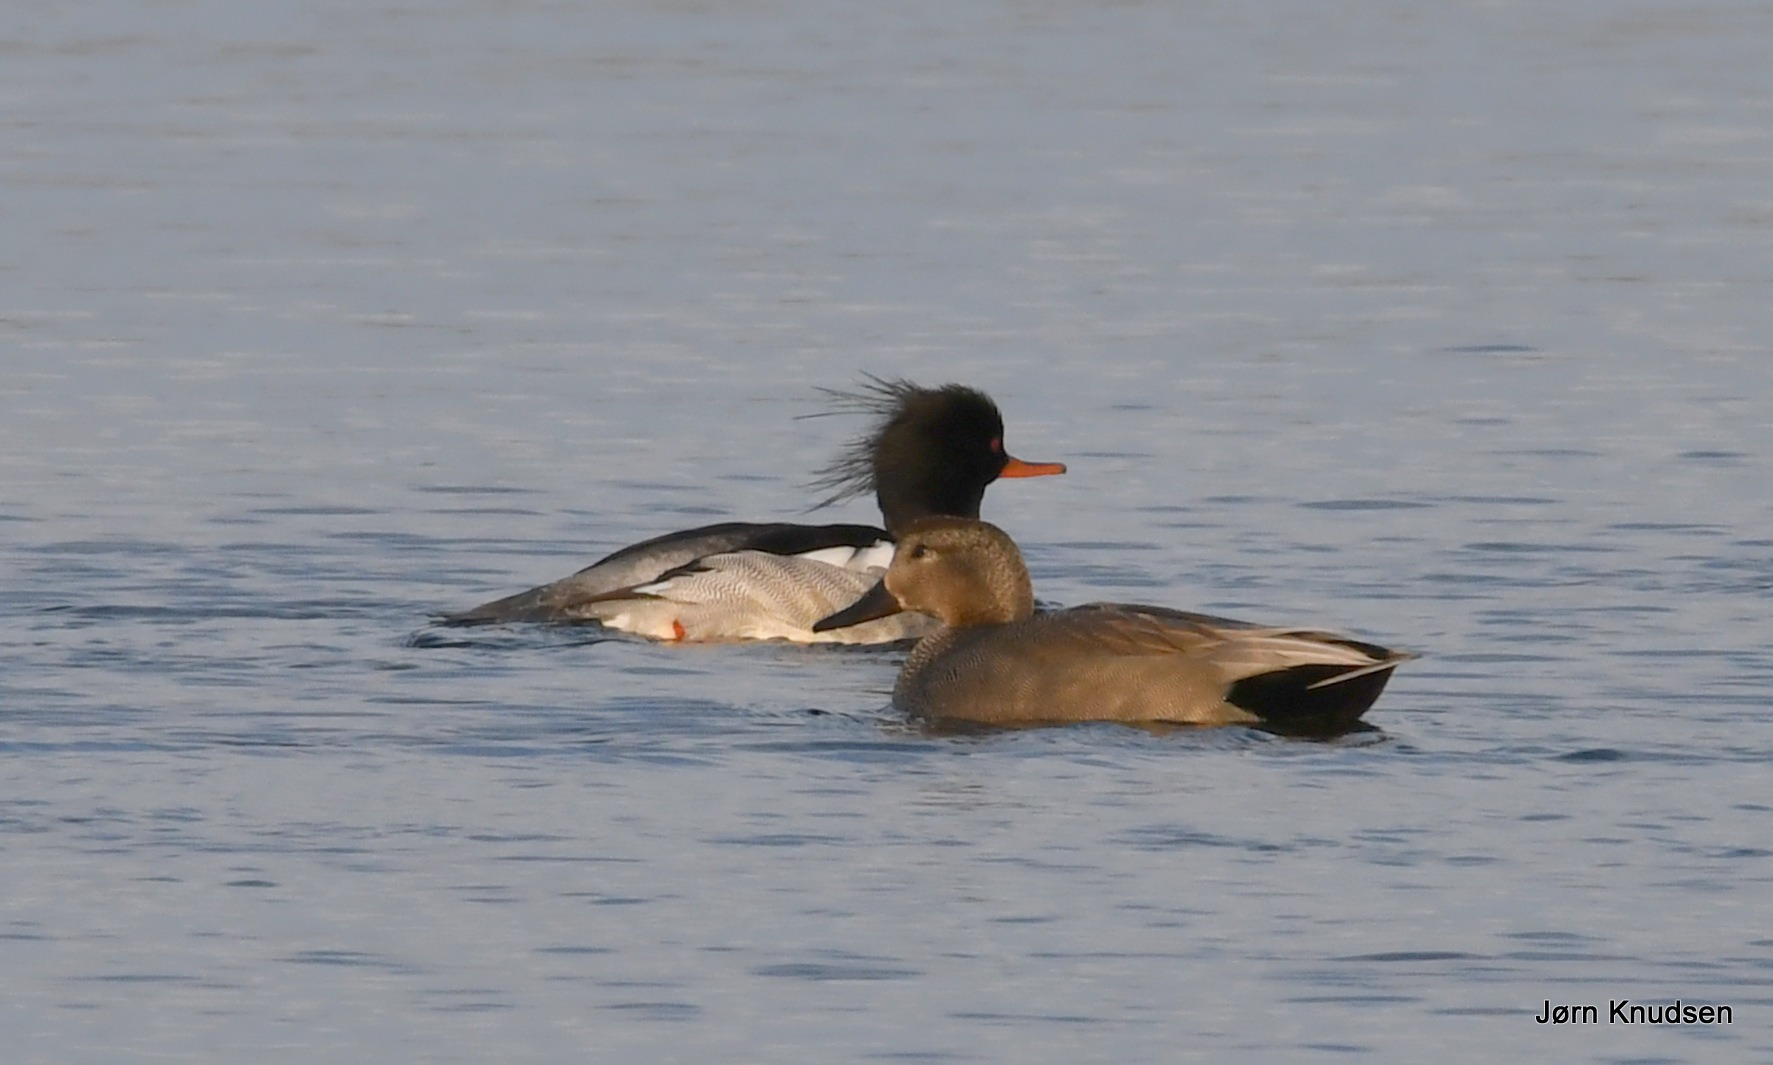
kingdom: Animalia
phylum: Chordata
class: Aves
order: Anseriformes
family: Anatidae
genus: Mareca
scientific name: Mareca strepera
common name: Knarand
